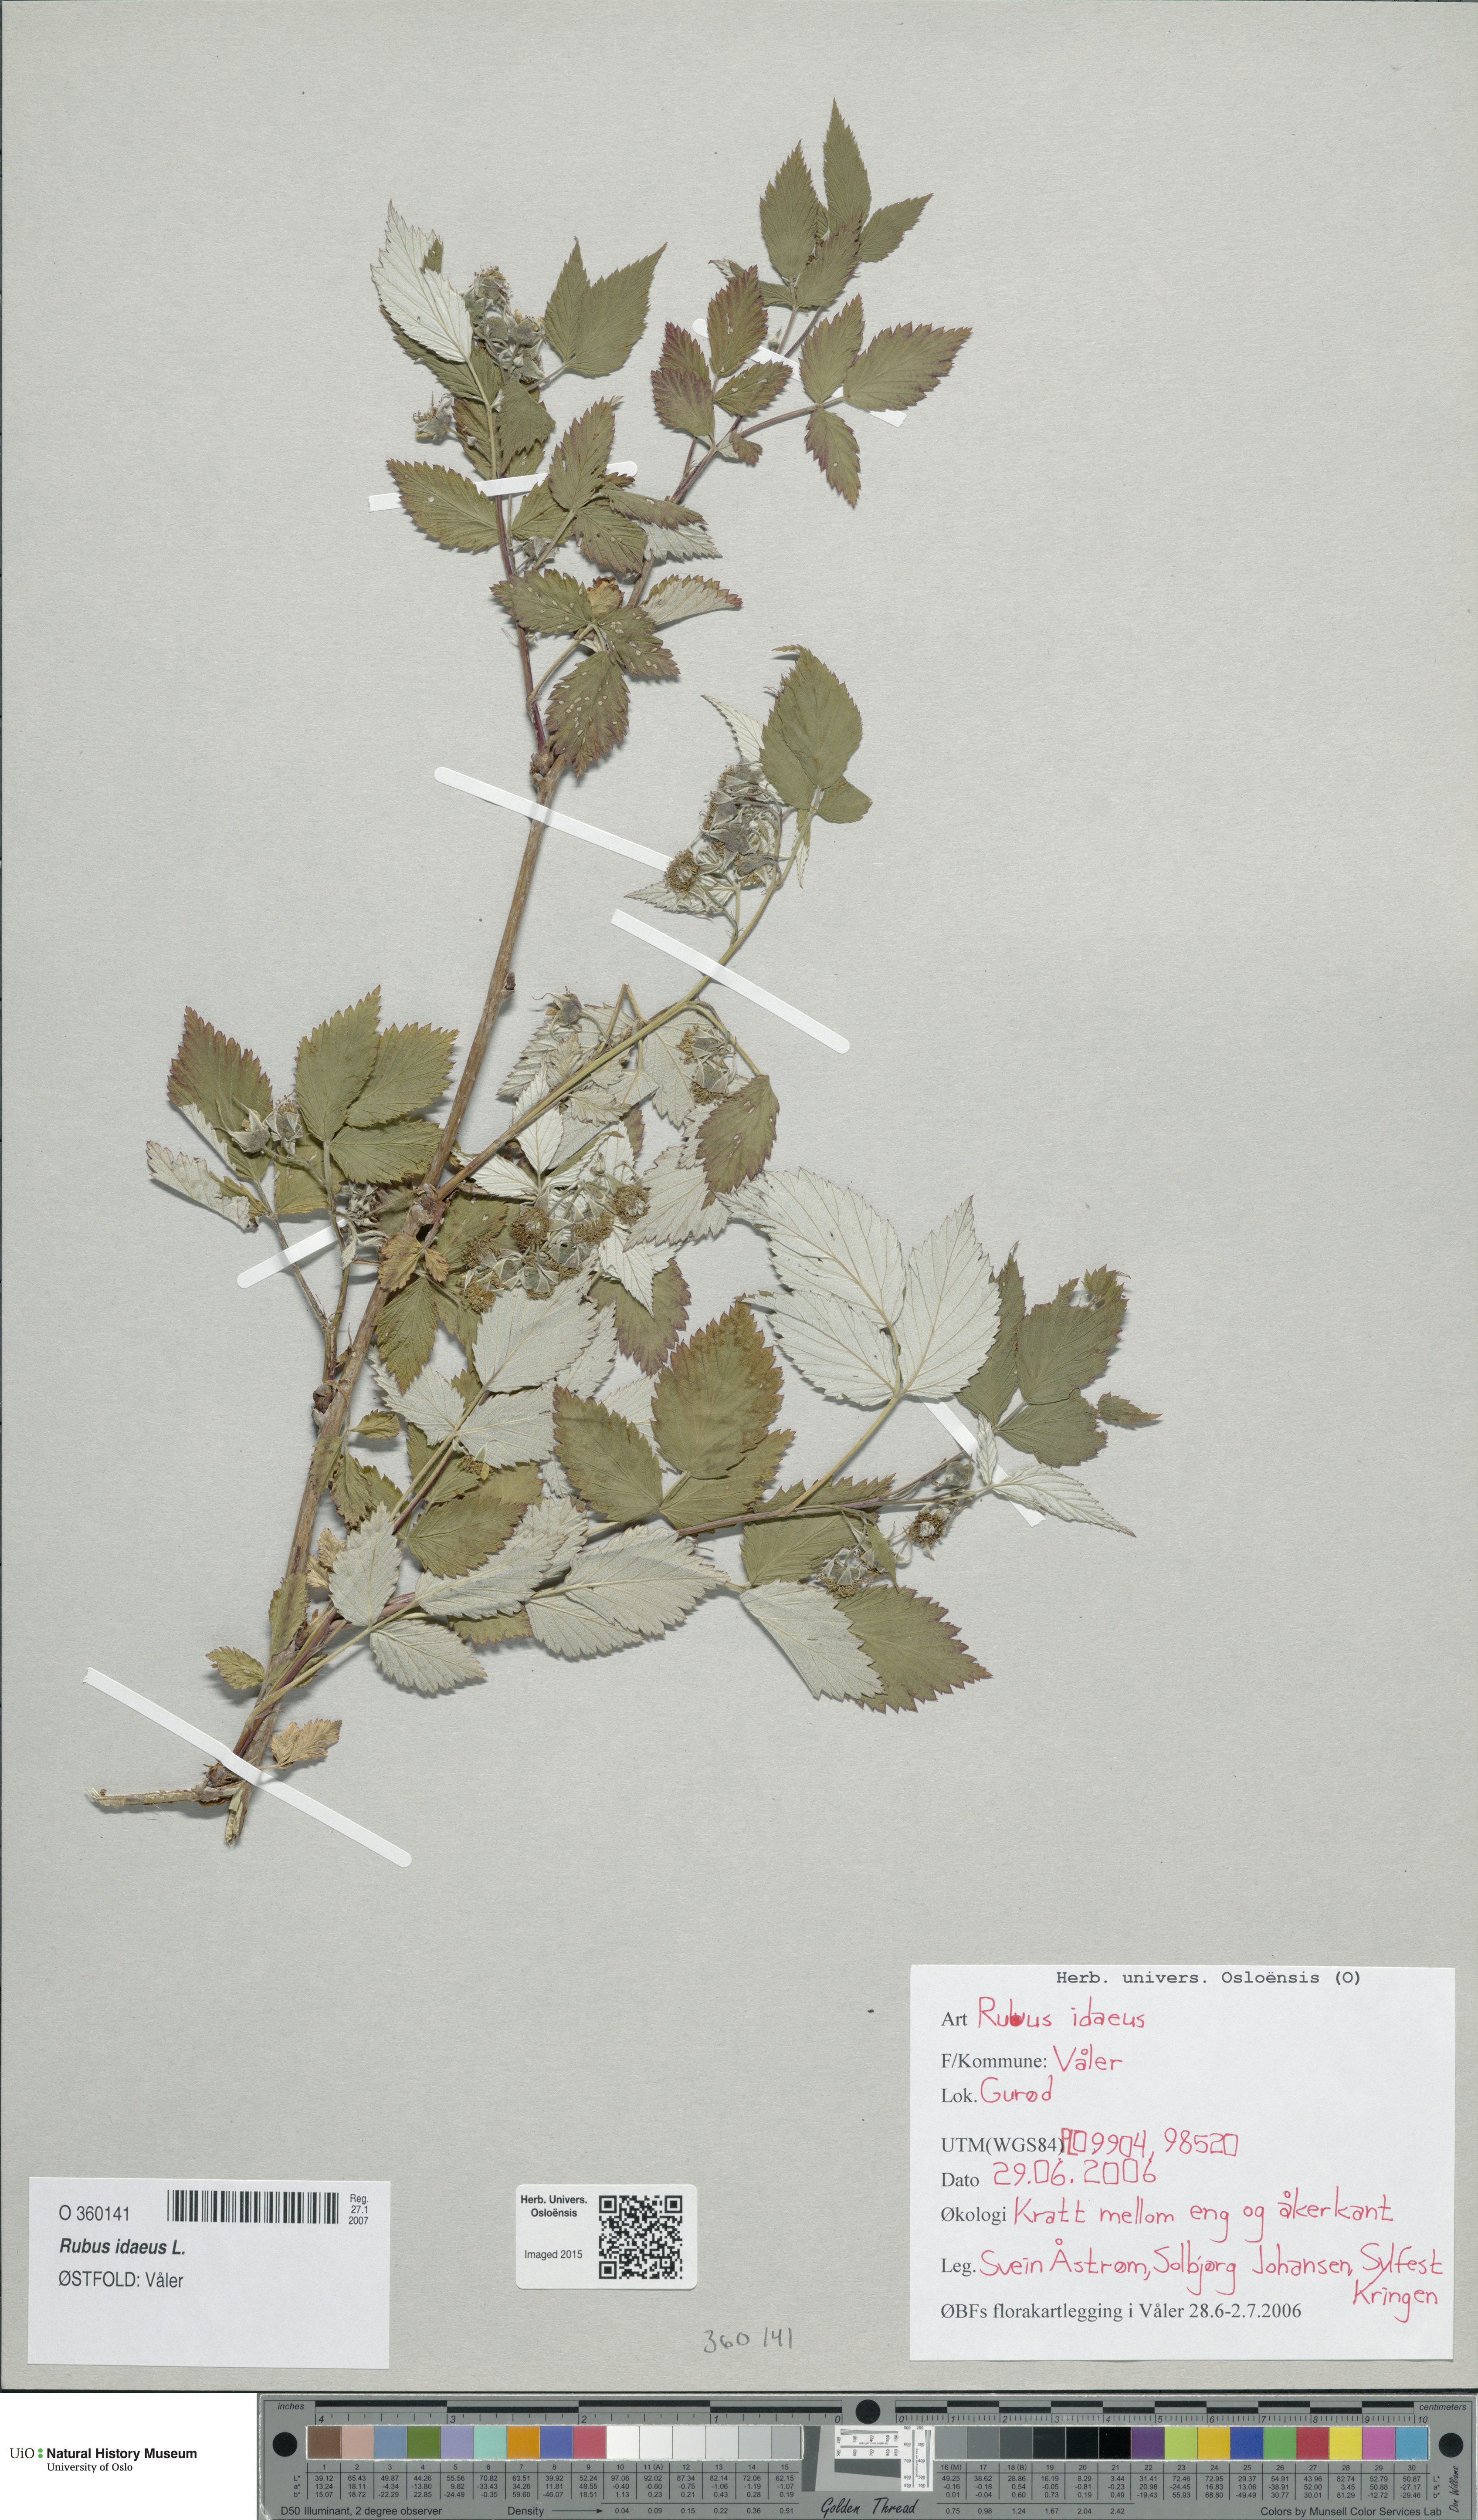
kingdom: Plantae
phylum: Tracheophyta
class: Magnoliopsida
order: Rosales
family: Rosaceae
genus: Rubus
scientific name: Rubus idaeus
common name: Raspberry
